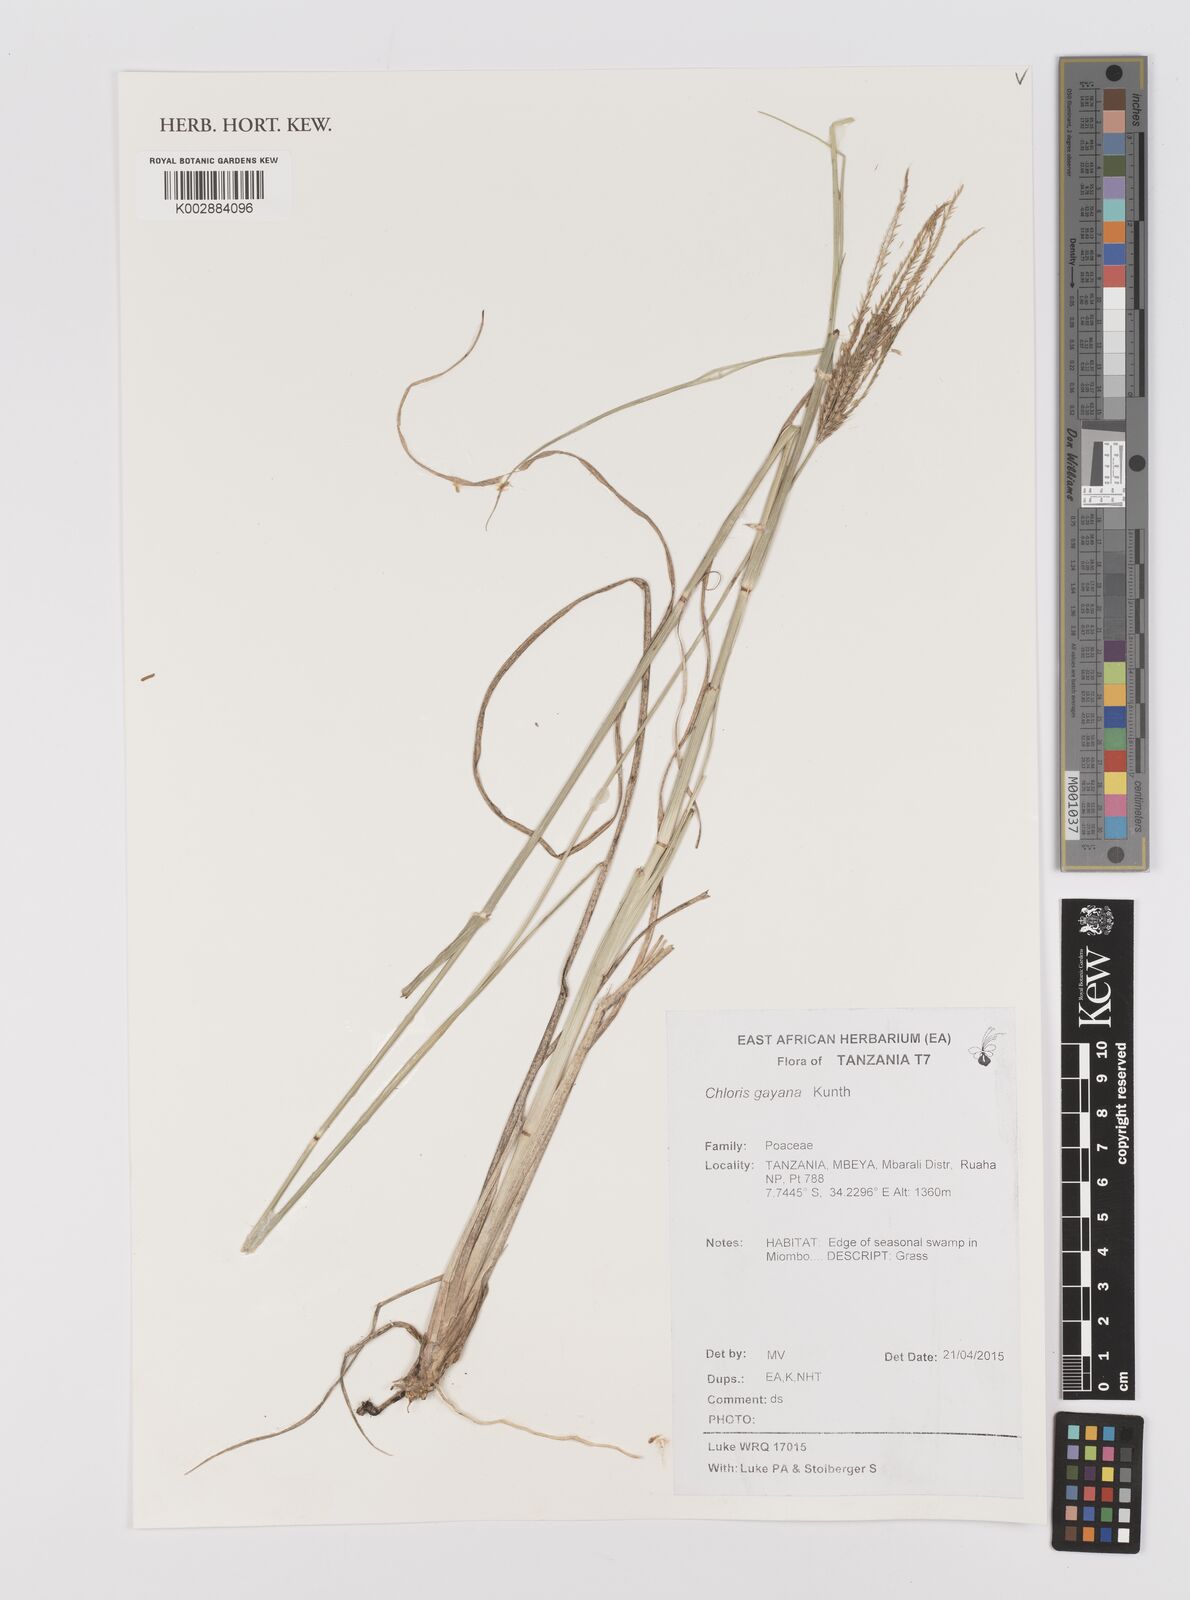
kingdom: Plantae
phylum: Tracheophyta
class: Liliopsida
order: Poales
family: Poaceae
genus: Chloris
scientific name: Chloris gayana
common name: Rhodes grass
